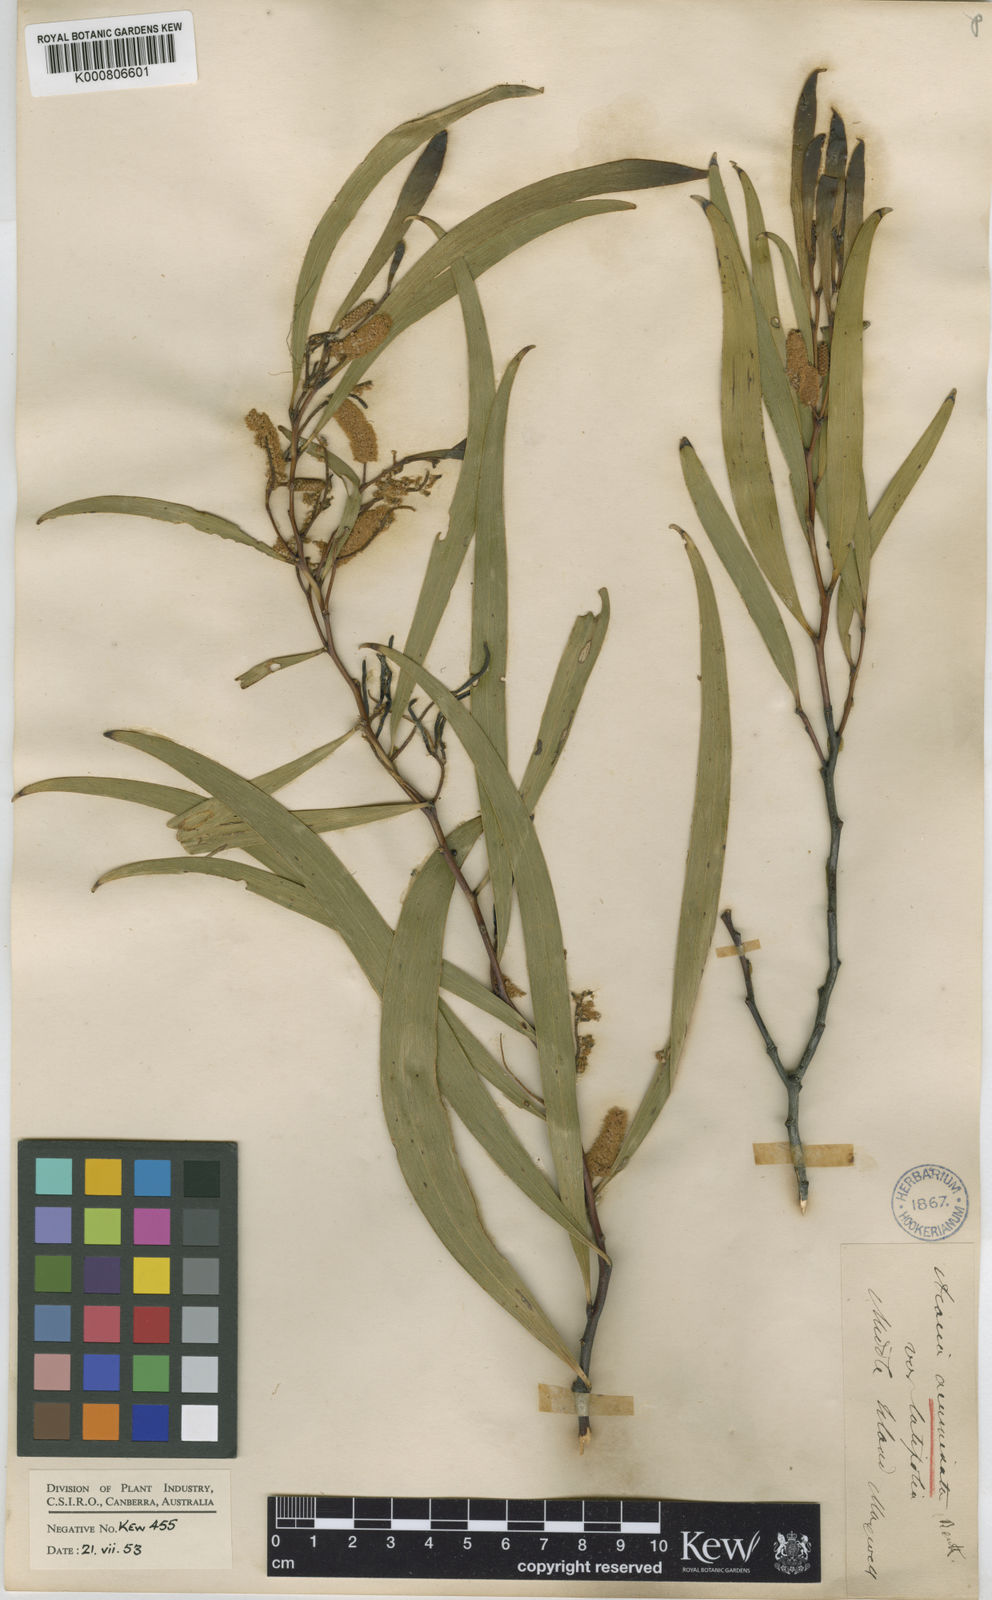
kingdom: Plantae
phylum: Tracheophyta
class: Magnoliopsida
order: Fabales
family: Fabaceae
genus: Acacia
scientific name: Acacia acuminata
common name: Jam wattle
